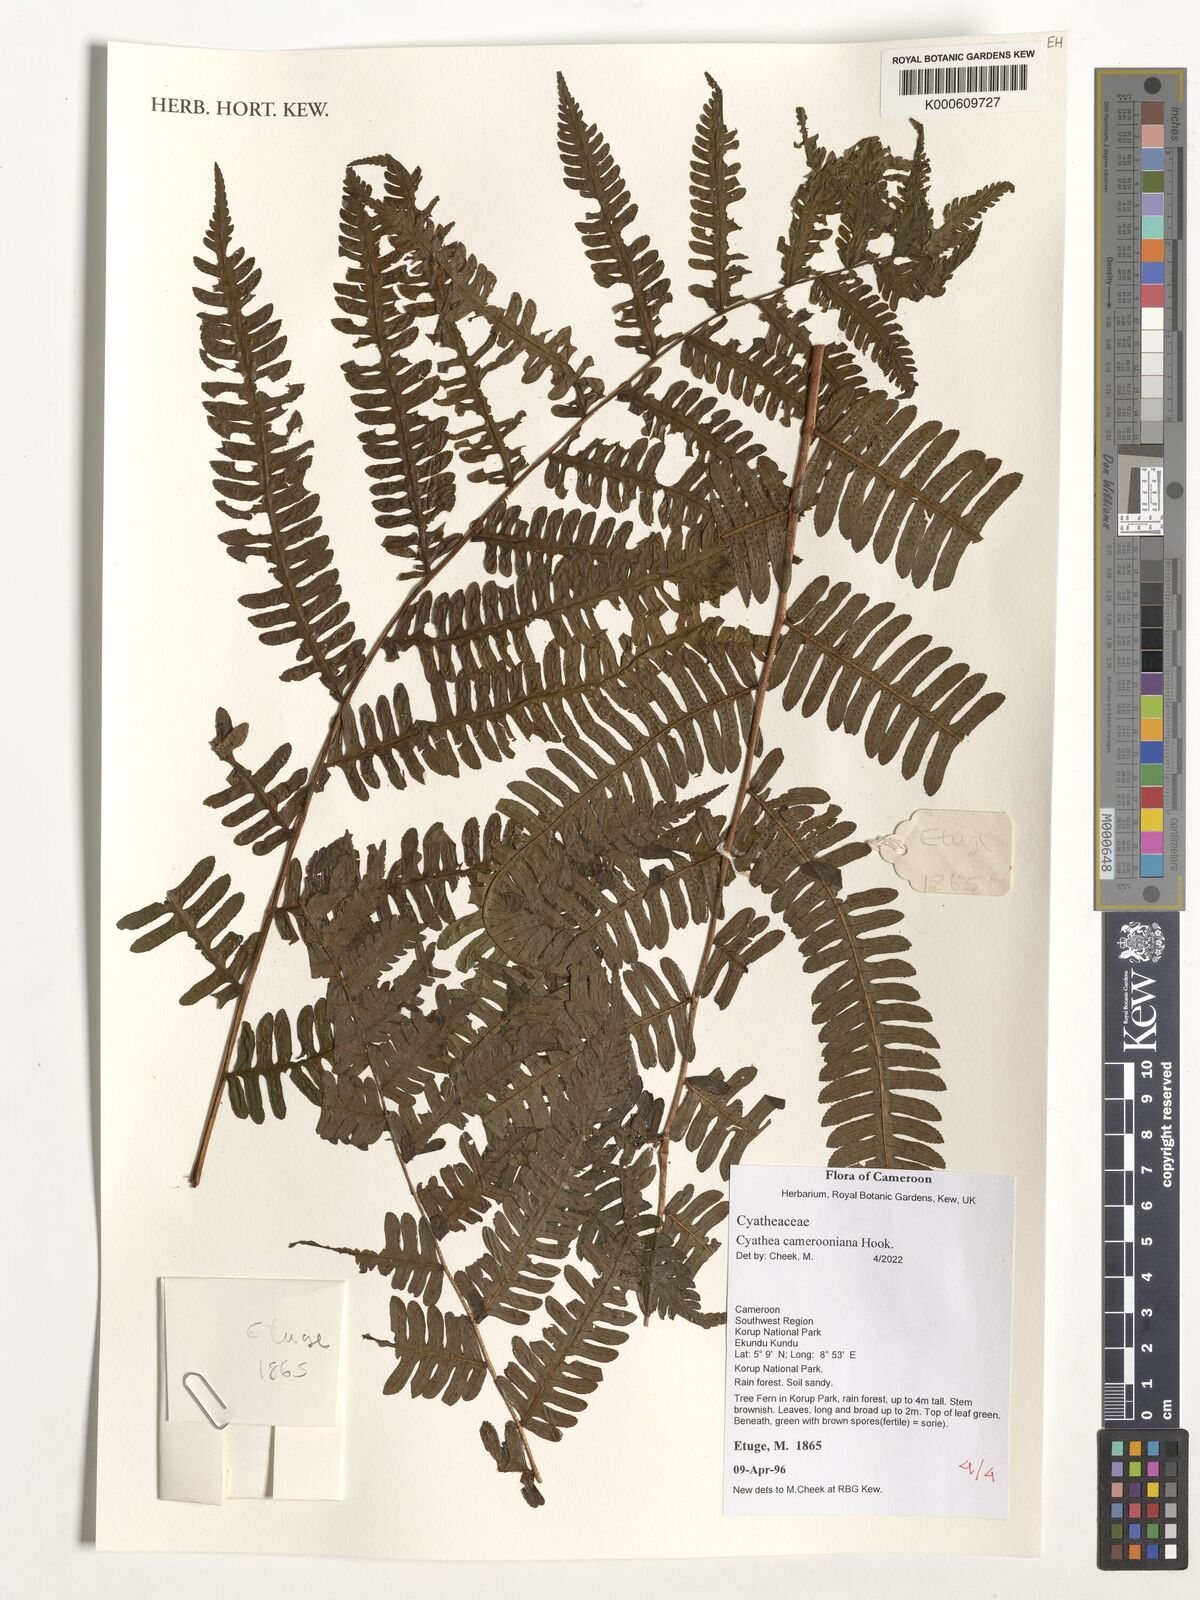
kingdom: Plantae
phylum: Tracheophyta
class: Polypodiopsida
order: Cyatheales
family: Cyatheaceae
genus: Alsophila
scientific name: Alsophila camerooniana
